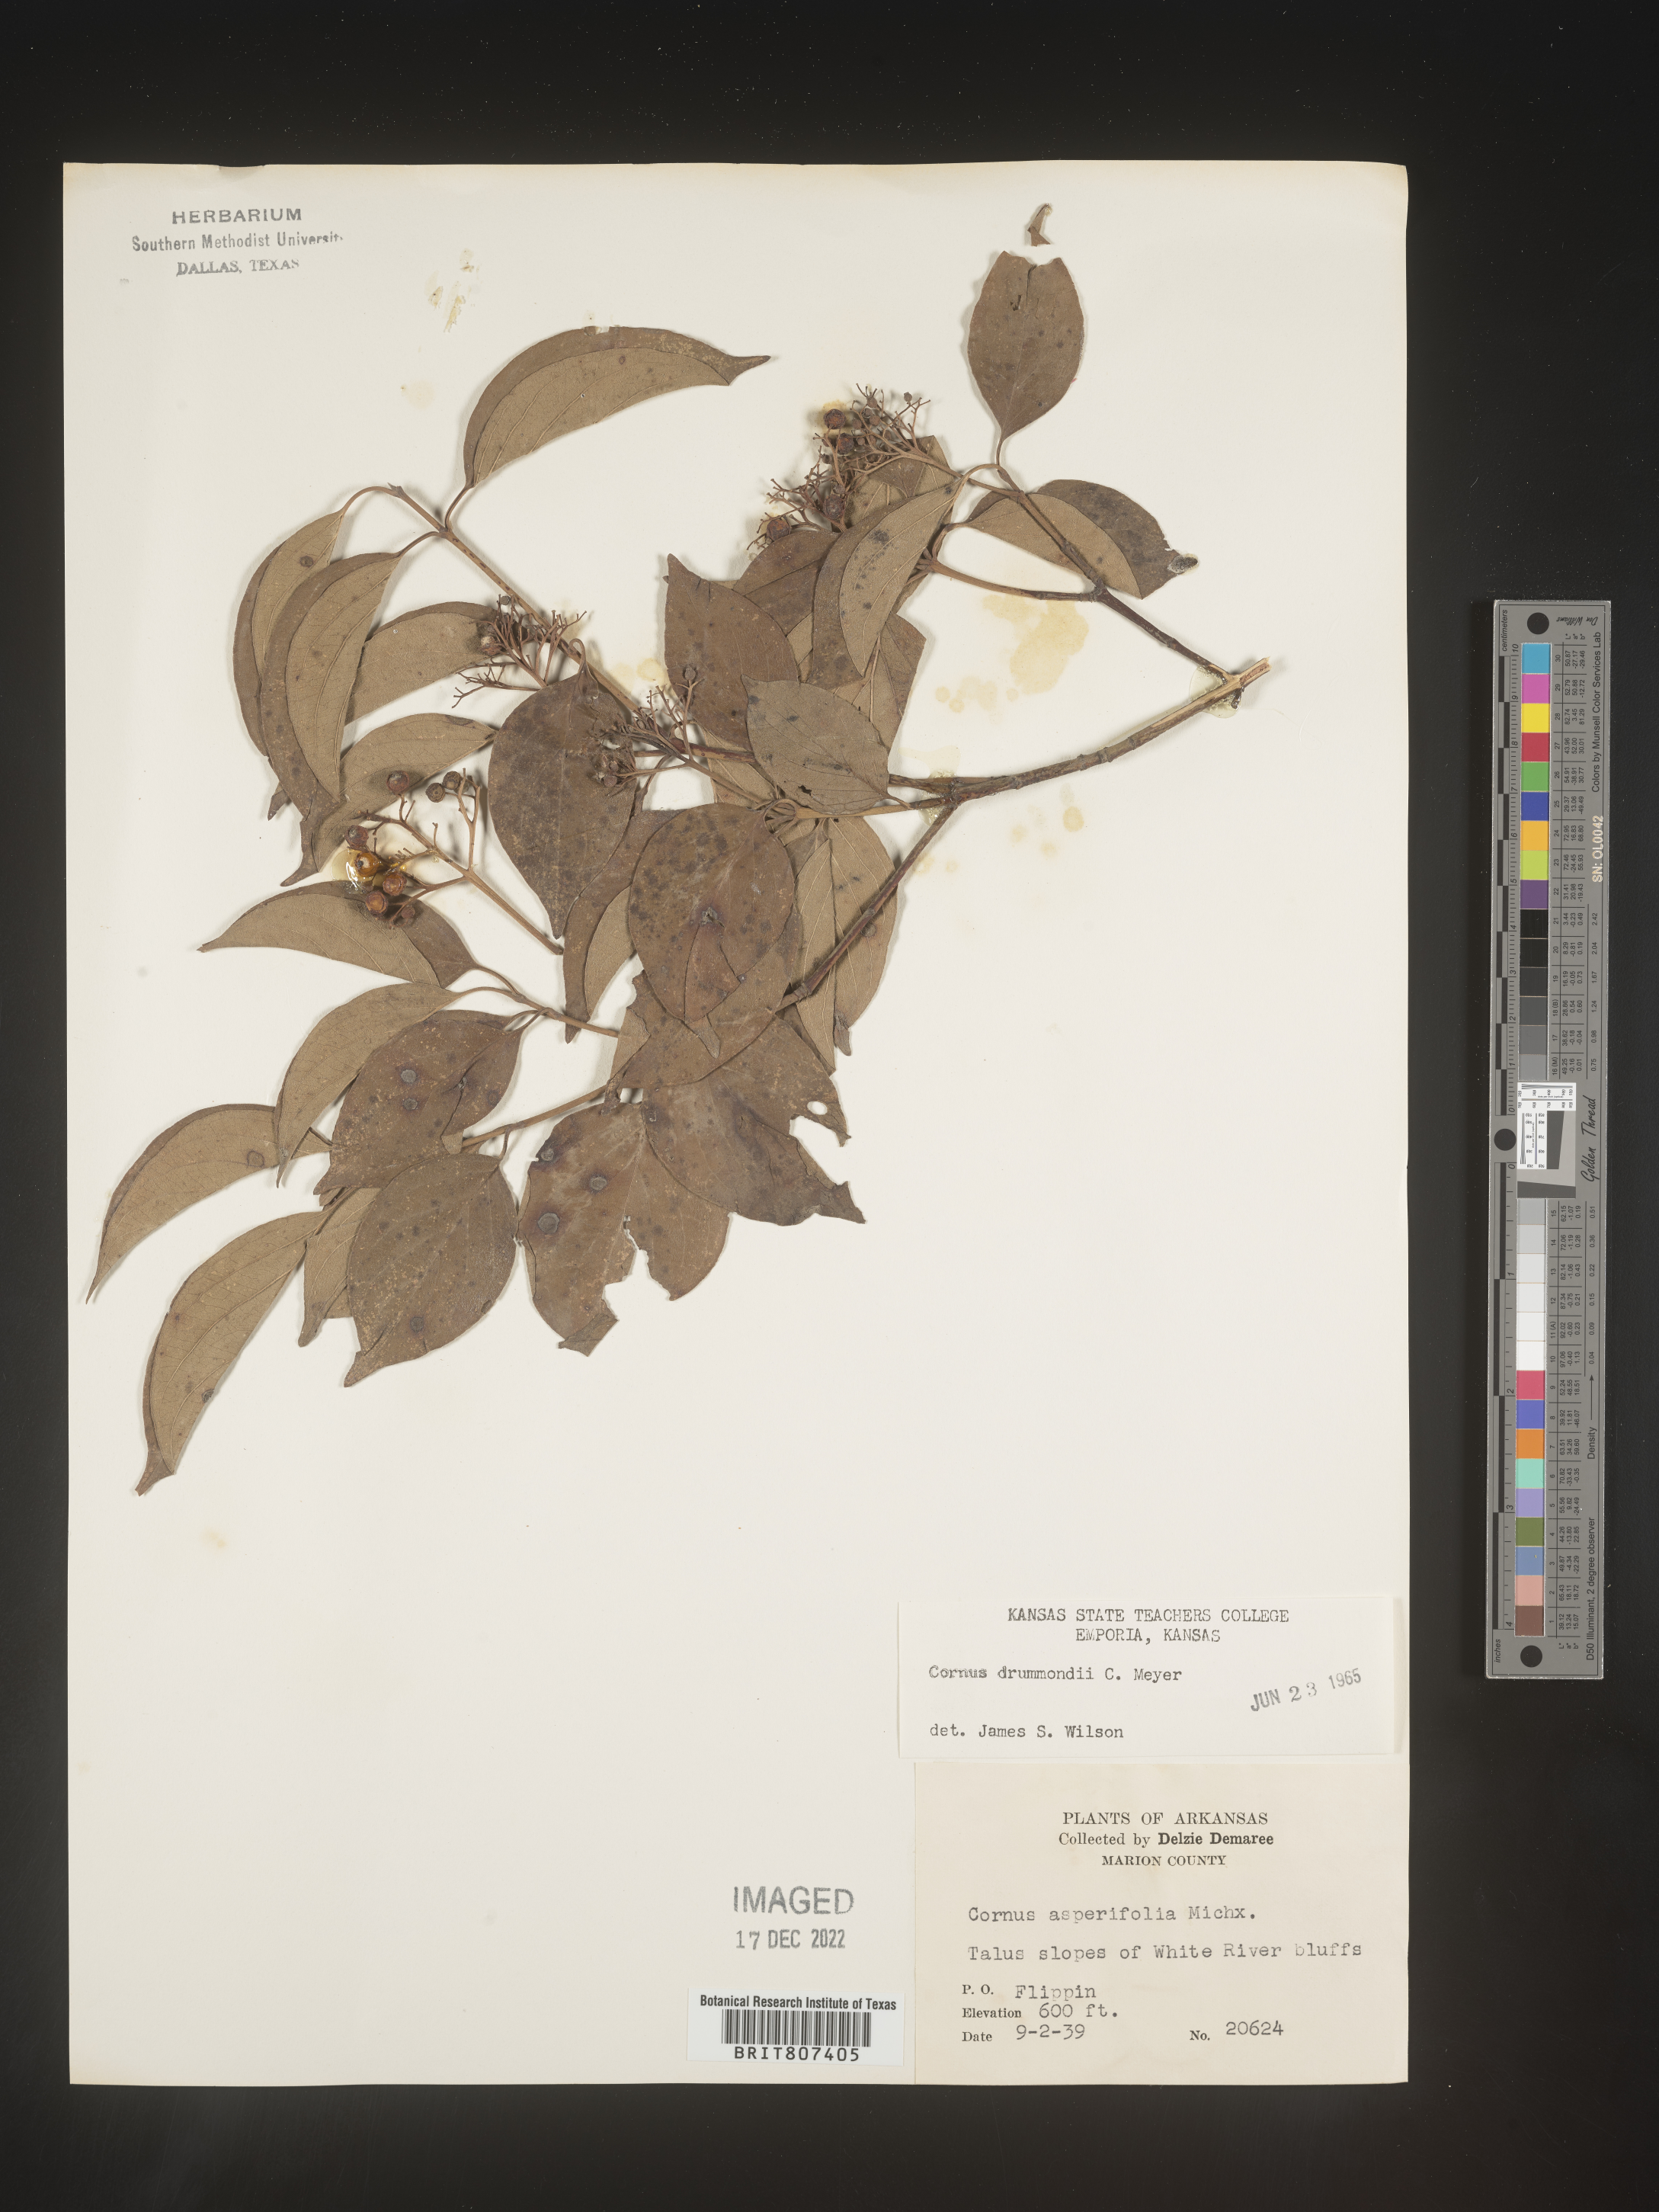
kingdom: Plantae
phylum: Tracheophyta
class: Magnoliopsida
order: Cornales
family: Cornaceae
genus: Cornus
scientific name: Cornus drummondii
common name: Rough-leaf dogwood
